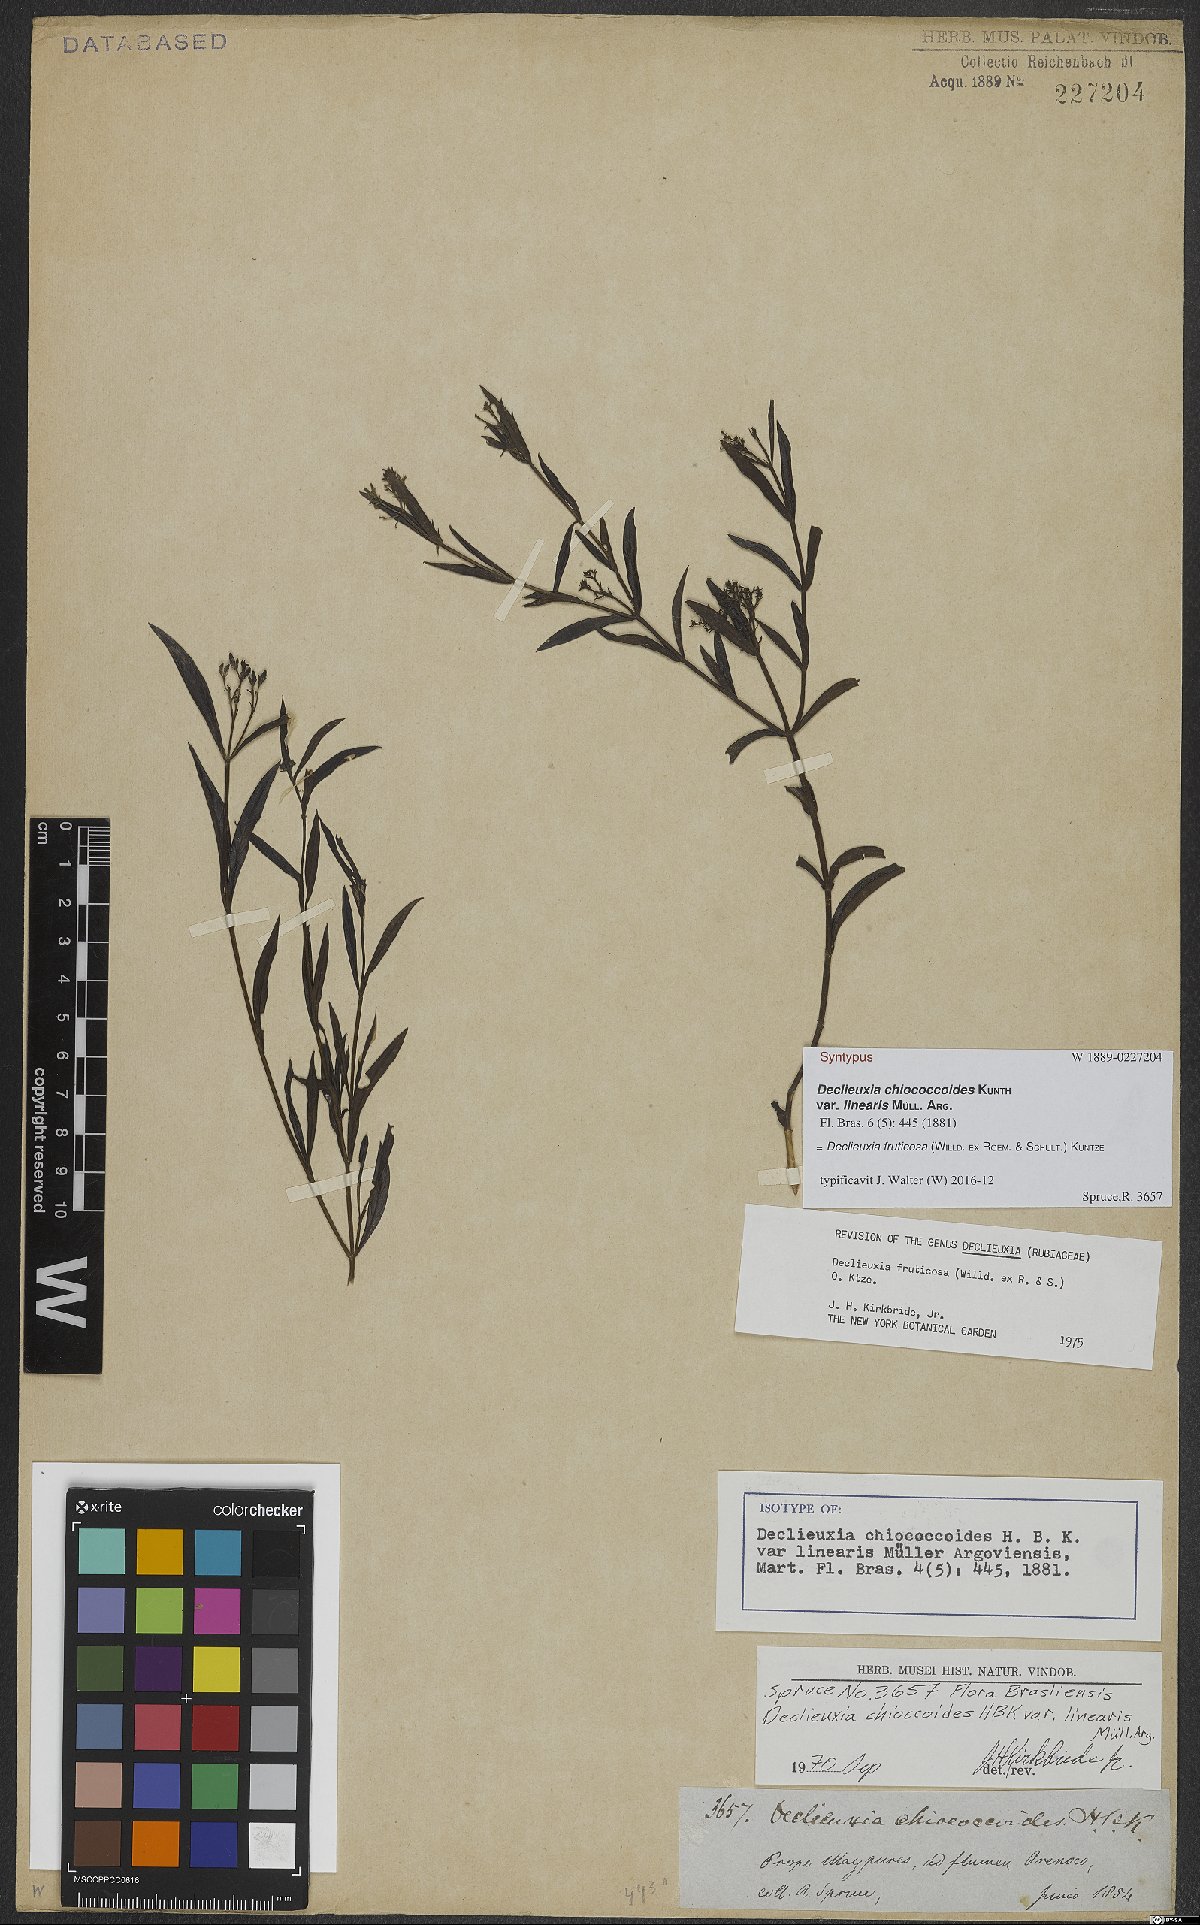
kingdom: Plantae
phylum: Tracheophyta
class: Magnoliopsida
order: Gentianales
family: Rubiaceae
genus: Declieuxia
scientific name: Declieuxia fruticosa
